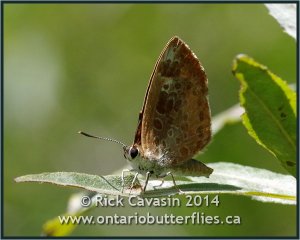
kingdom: Animalia
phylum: Arthropoda
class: Insecta
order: Lepidoptera
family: Lycaenidae
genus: Feniseca
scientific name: Feniseca tarquinius
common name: Harvester
